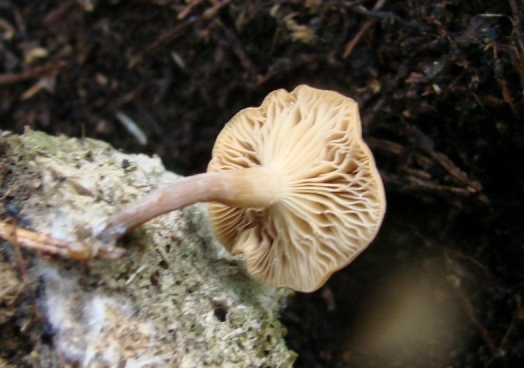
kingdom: Fungi
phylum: Basidiomycota
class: Agaricomycetes
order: Agaricales
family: Tricholomataceae
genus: Clitocybe
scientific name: Clitocybe amarescens
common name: gødnings-tragthat
